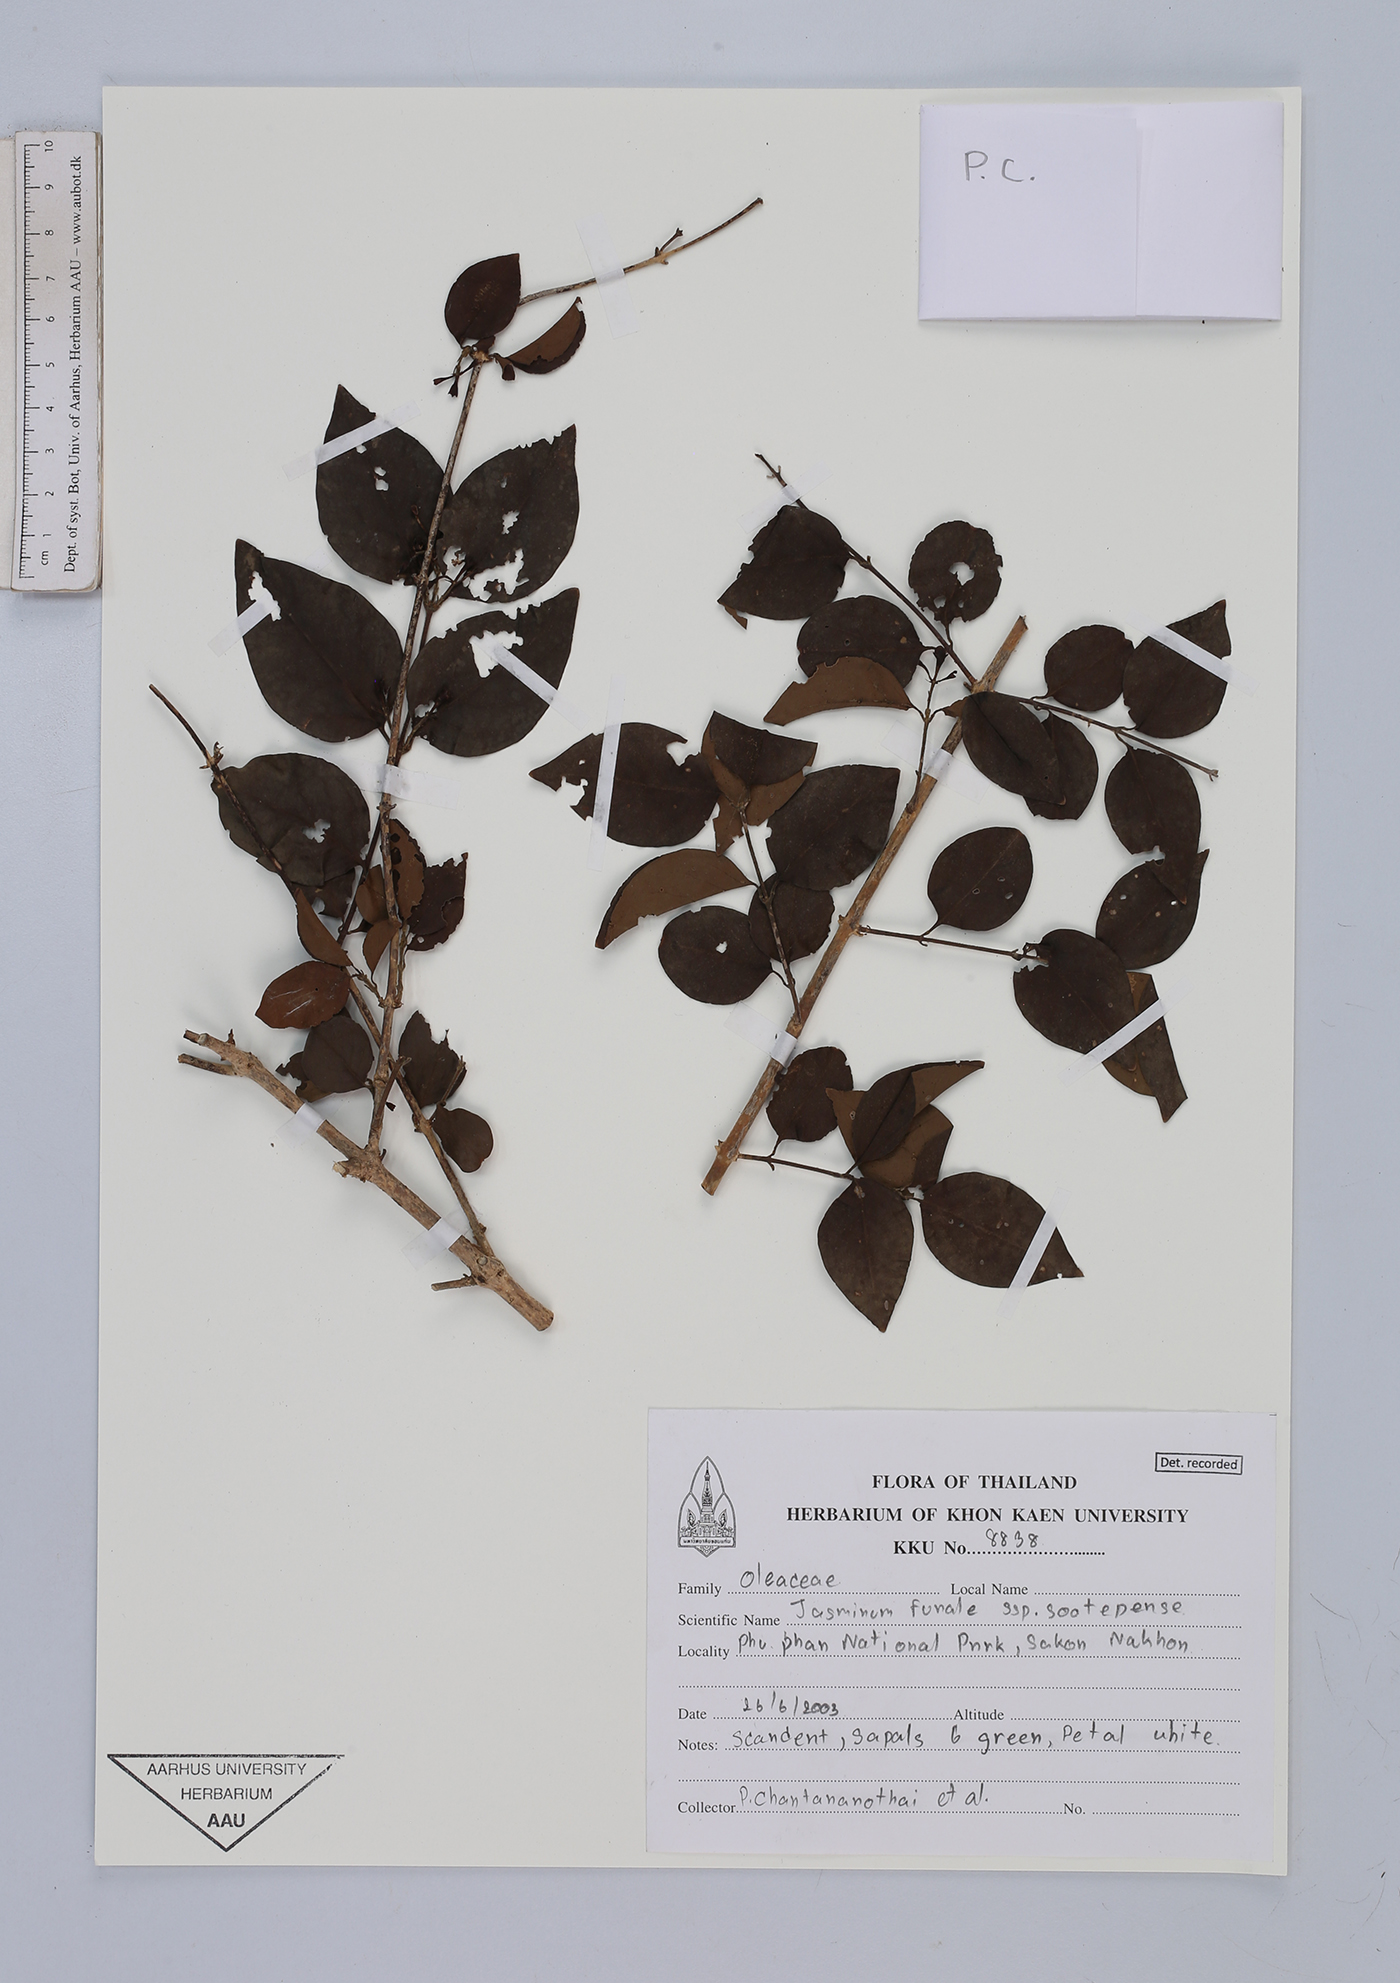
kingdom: Plantae
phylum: Tracheophyta
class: Magnoliopsida
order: Lamiales
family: Oleaceae
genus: Jasminum
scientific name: Jasminum simplicifolium
